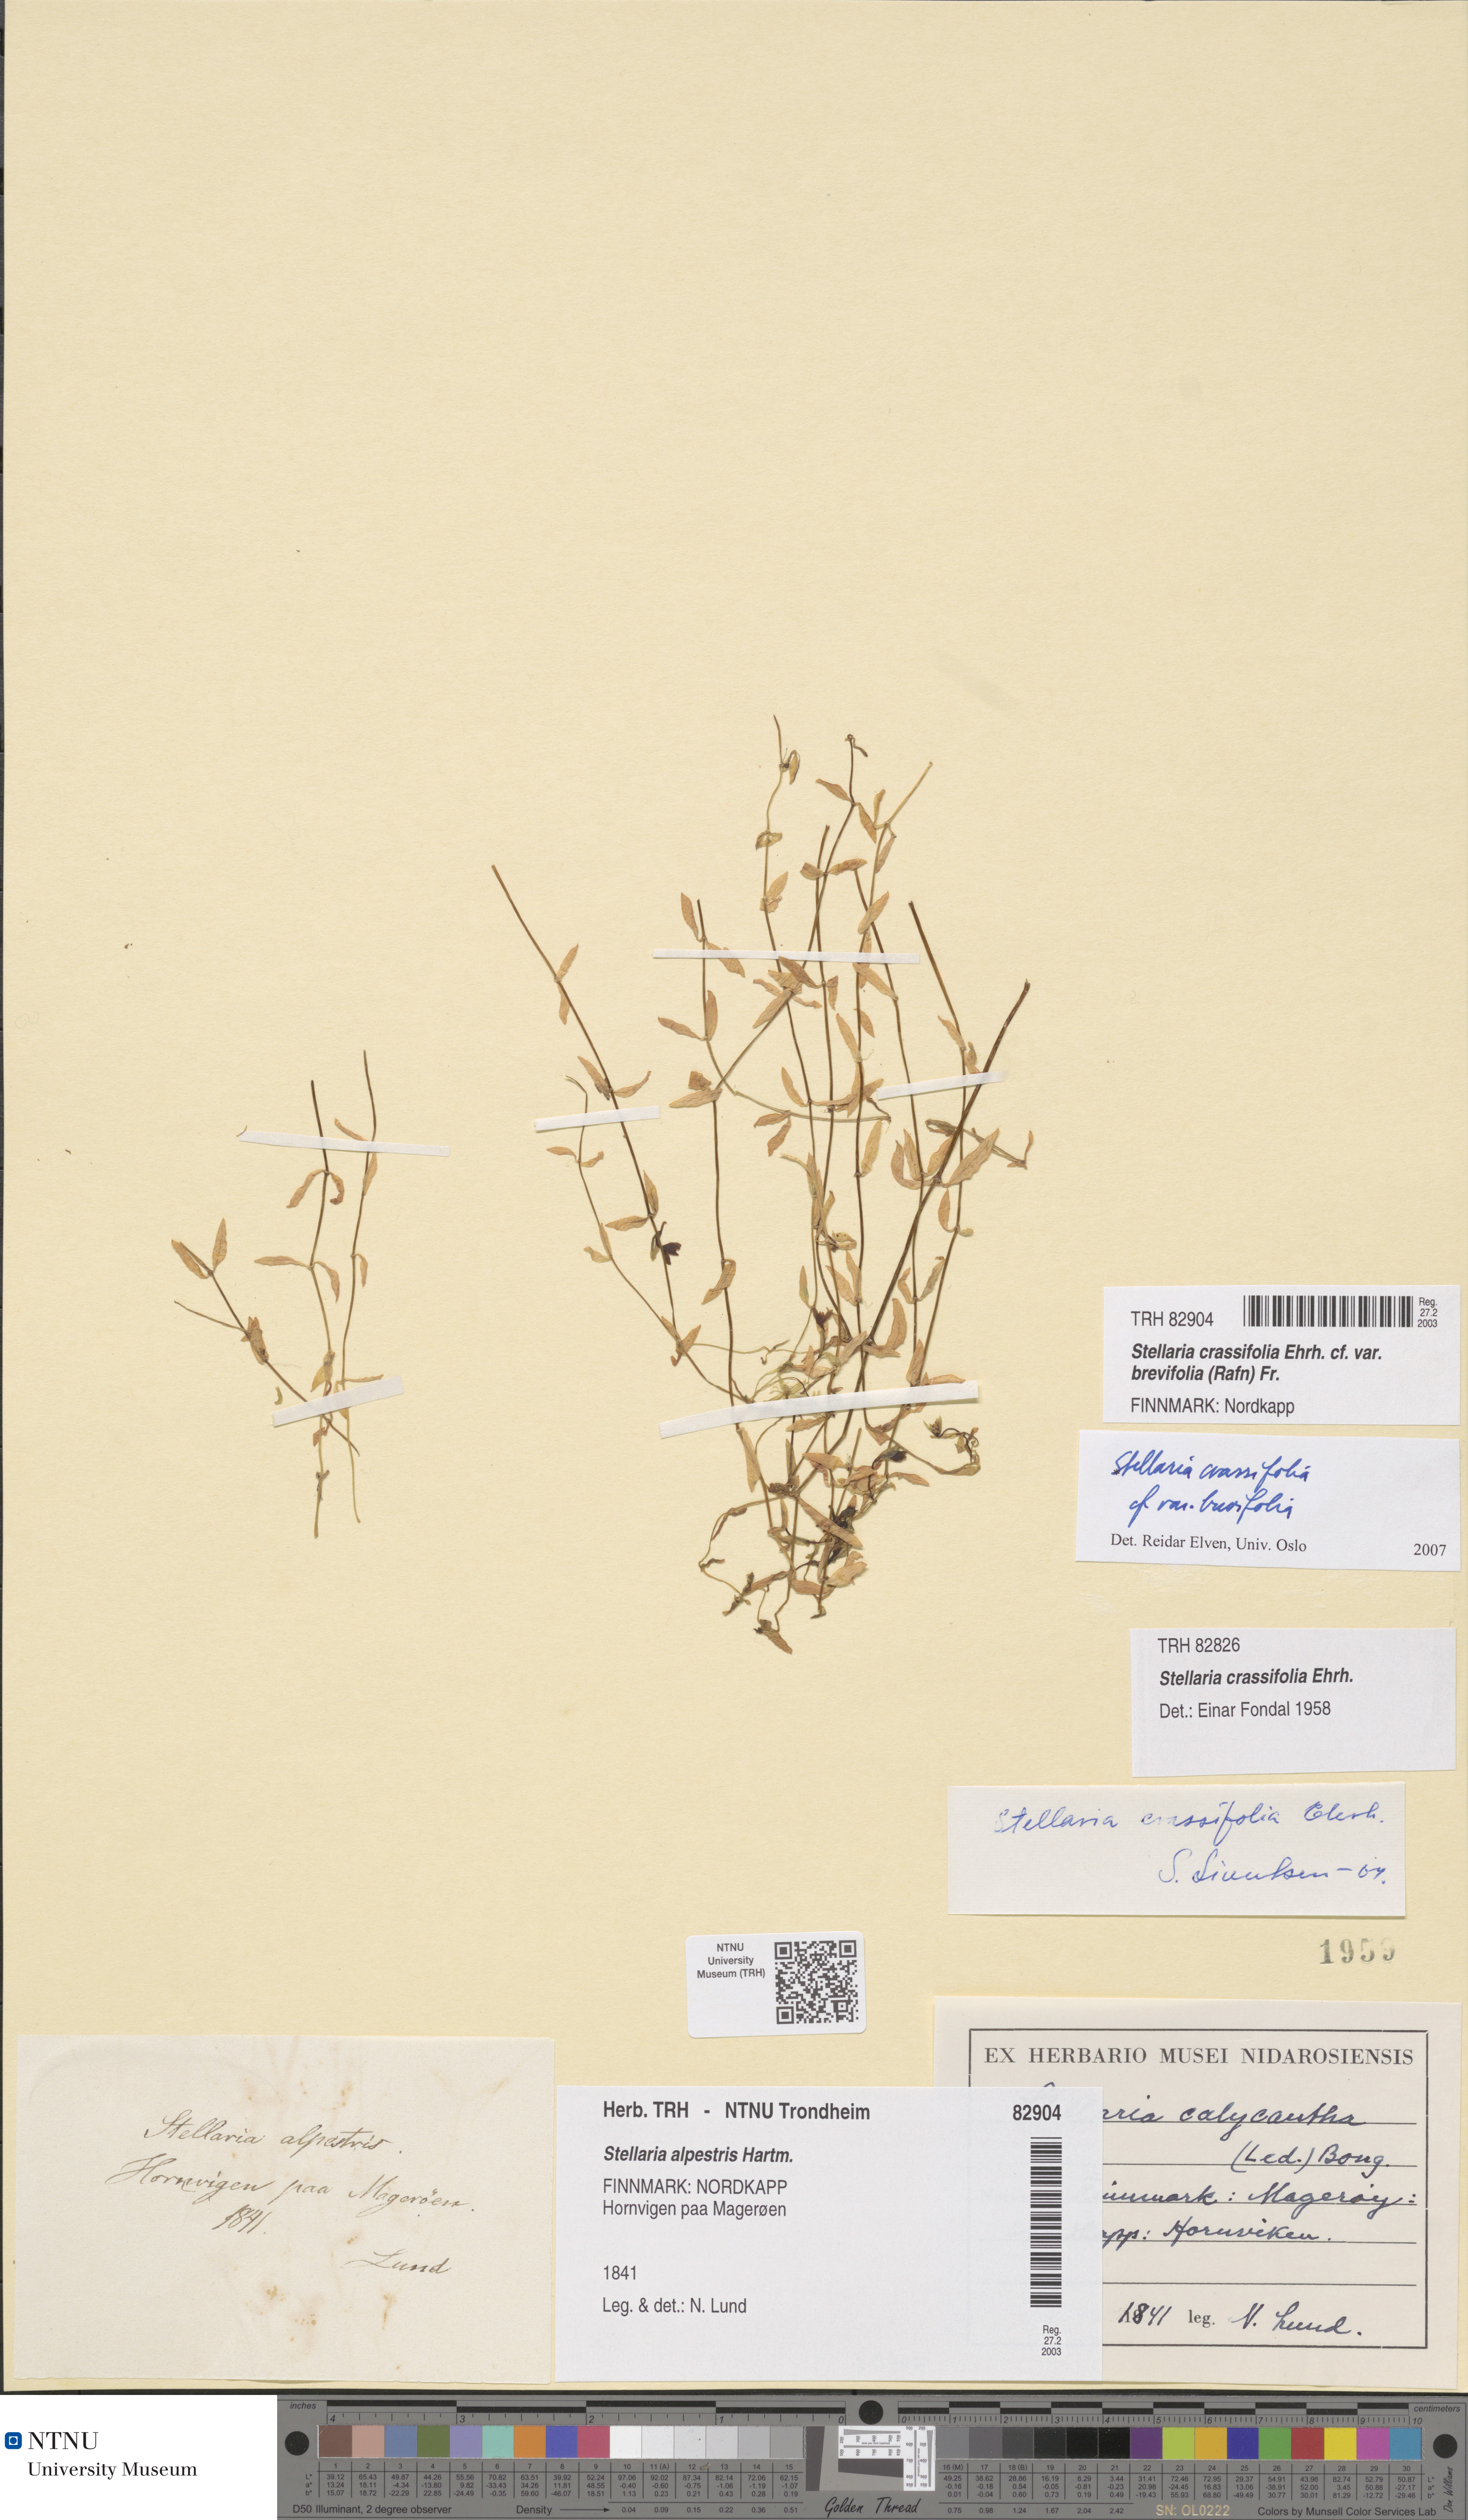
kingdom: Plantae
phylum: Tracheophyta
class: Magnoliopsida
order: Caryophyllales
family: Caryophyllaceae
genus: Stellaria
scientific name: Stellaria crassifolia
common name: Fleshy starwort
